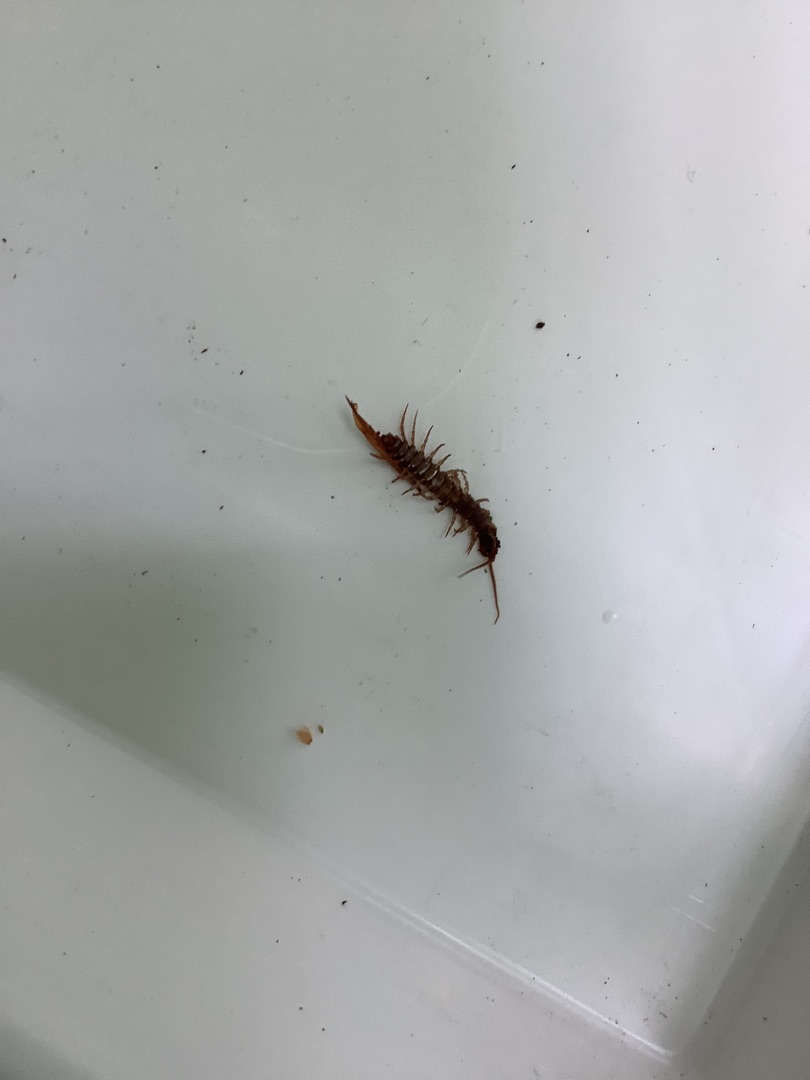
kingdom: Animalia
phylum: Arthropoda
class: Chilopoda
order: Lithobiomorpha
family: Lithobiidae
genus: Lithobius
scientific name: Lithobius forficatus
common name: Stenskolopender
